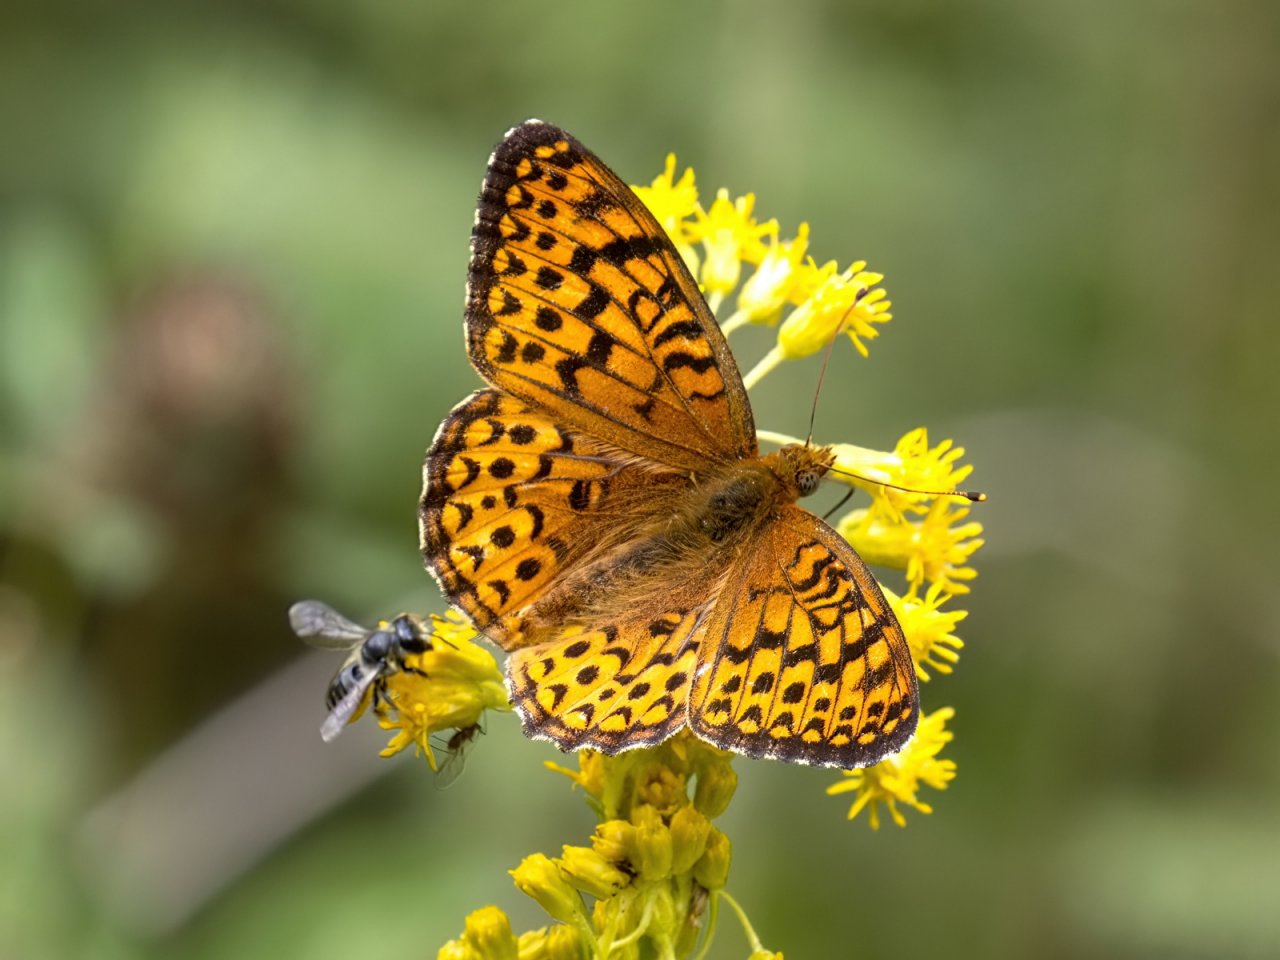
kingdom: Animalia
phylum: Arthropoda
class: Insecta
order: Lepidoptera
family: Nymphalidae
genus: Speyeria
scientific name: Speyeria atlantis
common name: Atlantis Fritillary
